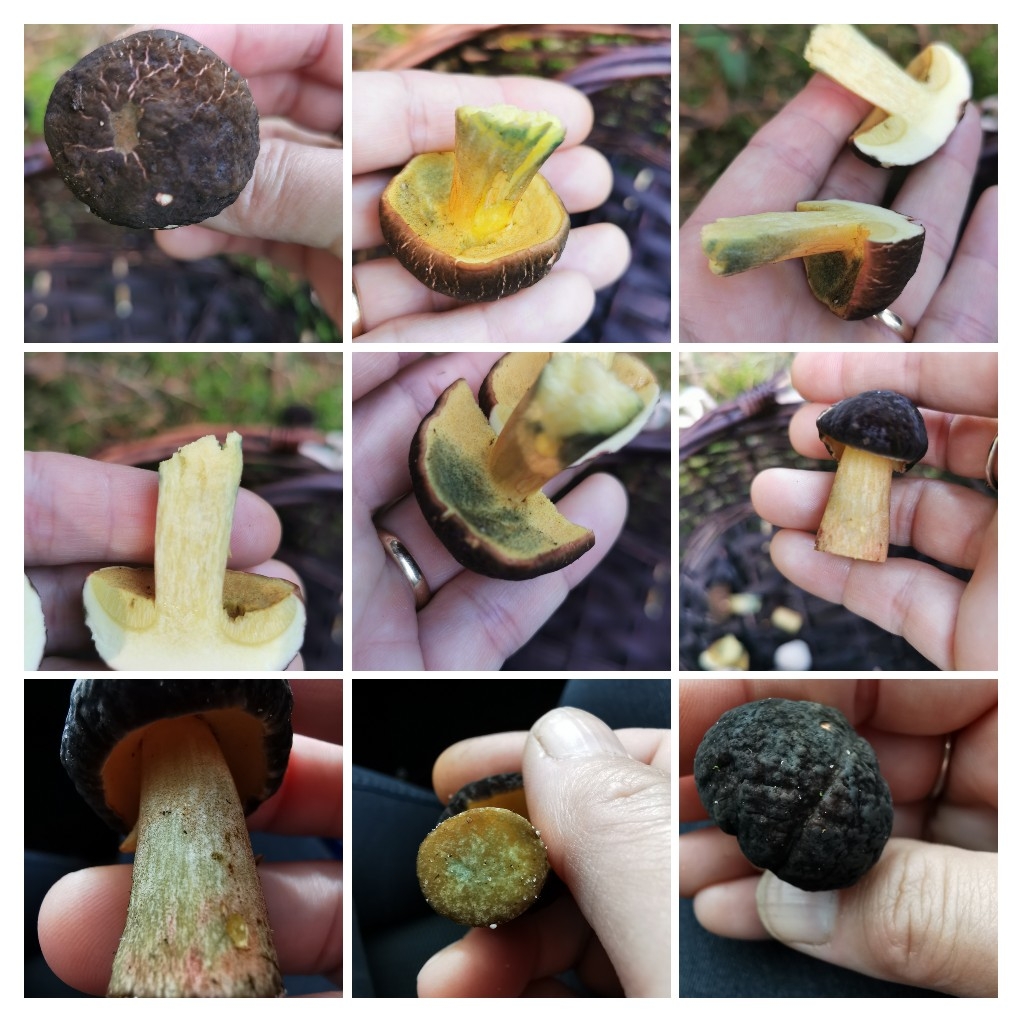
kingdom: Fungi
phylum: Basidiomycota
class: Agaricomycetes
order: Boletales
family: Boletaceae
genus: Xerocomellus
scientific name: Xerocomellus pruinatus
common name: dugget rørhat
